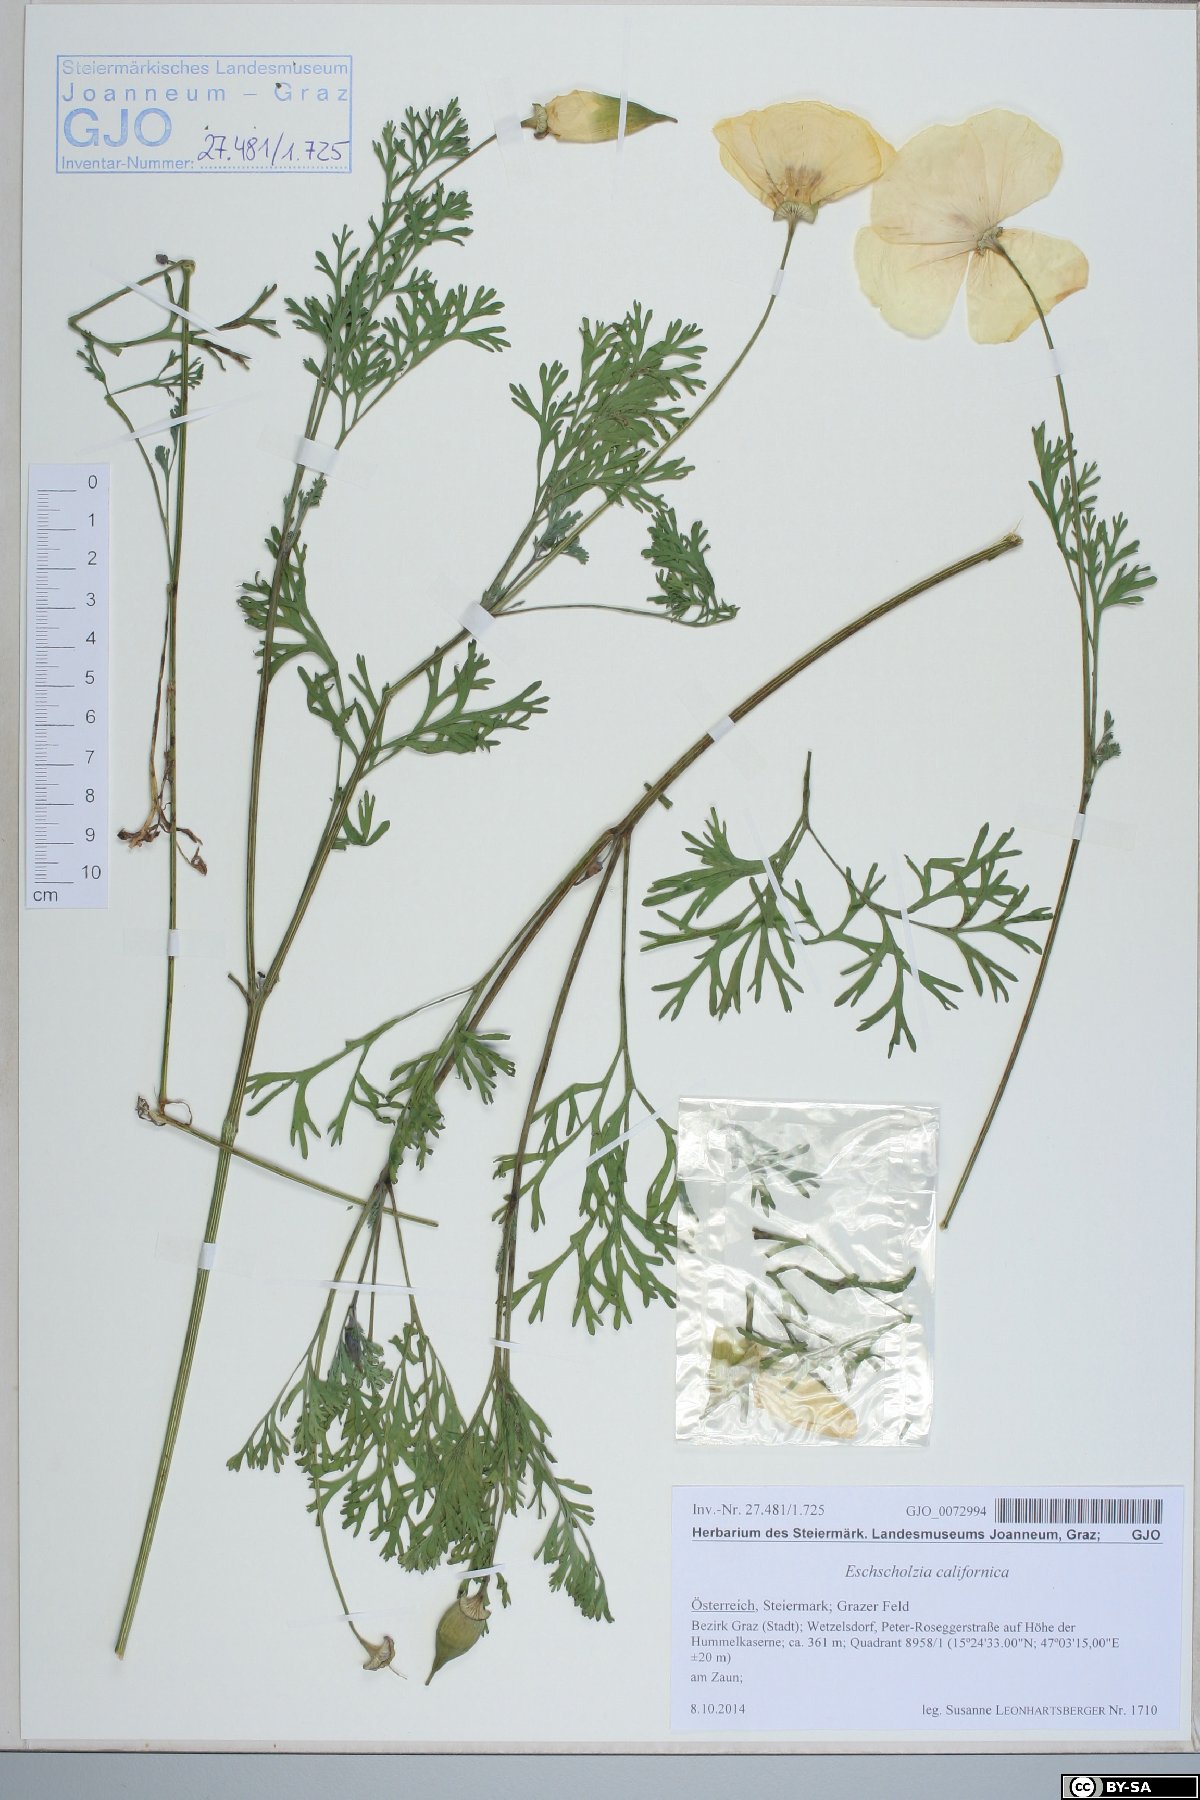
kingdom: Plantae
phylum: Tracheophyta
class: Magnoliopsida
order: Ranunculales
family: Papaveraceae
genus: Eschscholzia
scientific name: Eschscholzia californica
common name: California poppy
